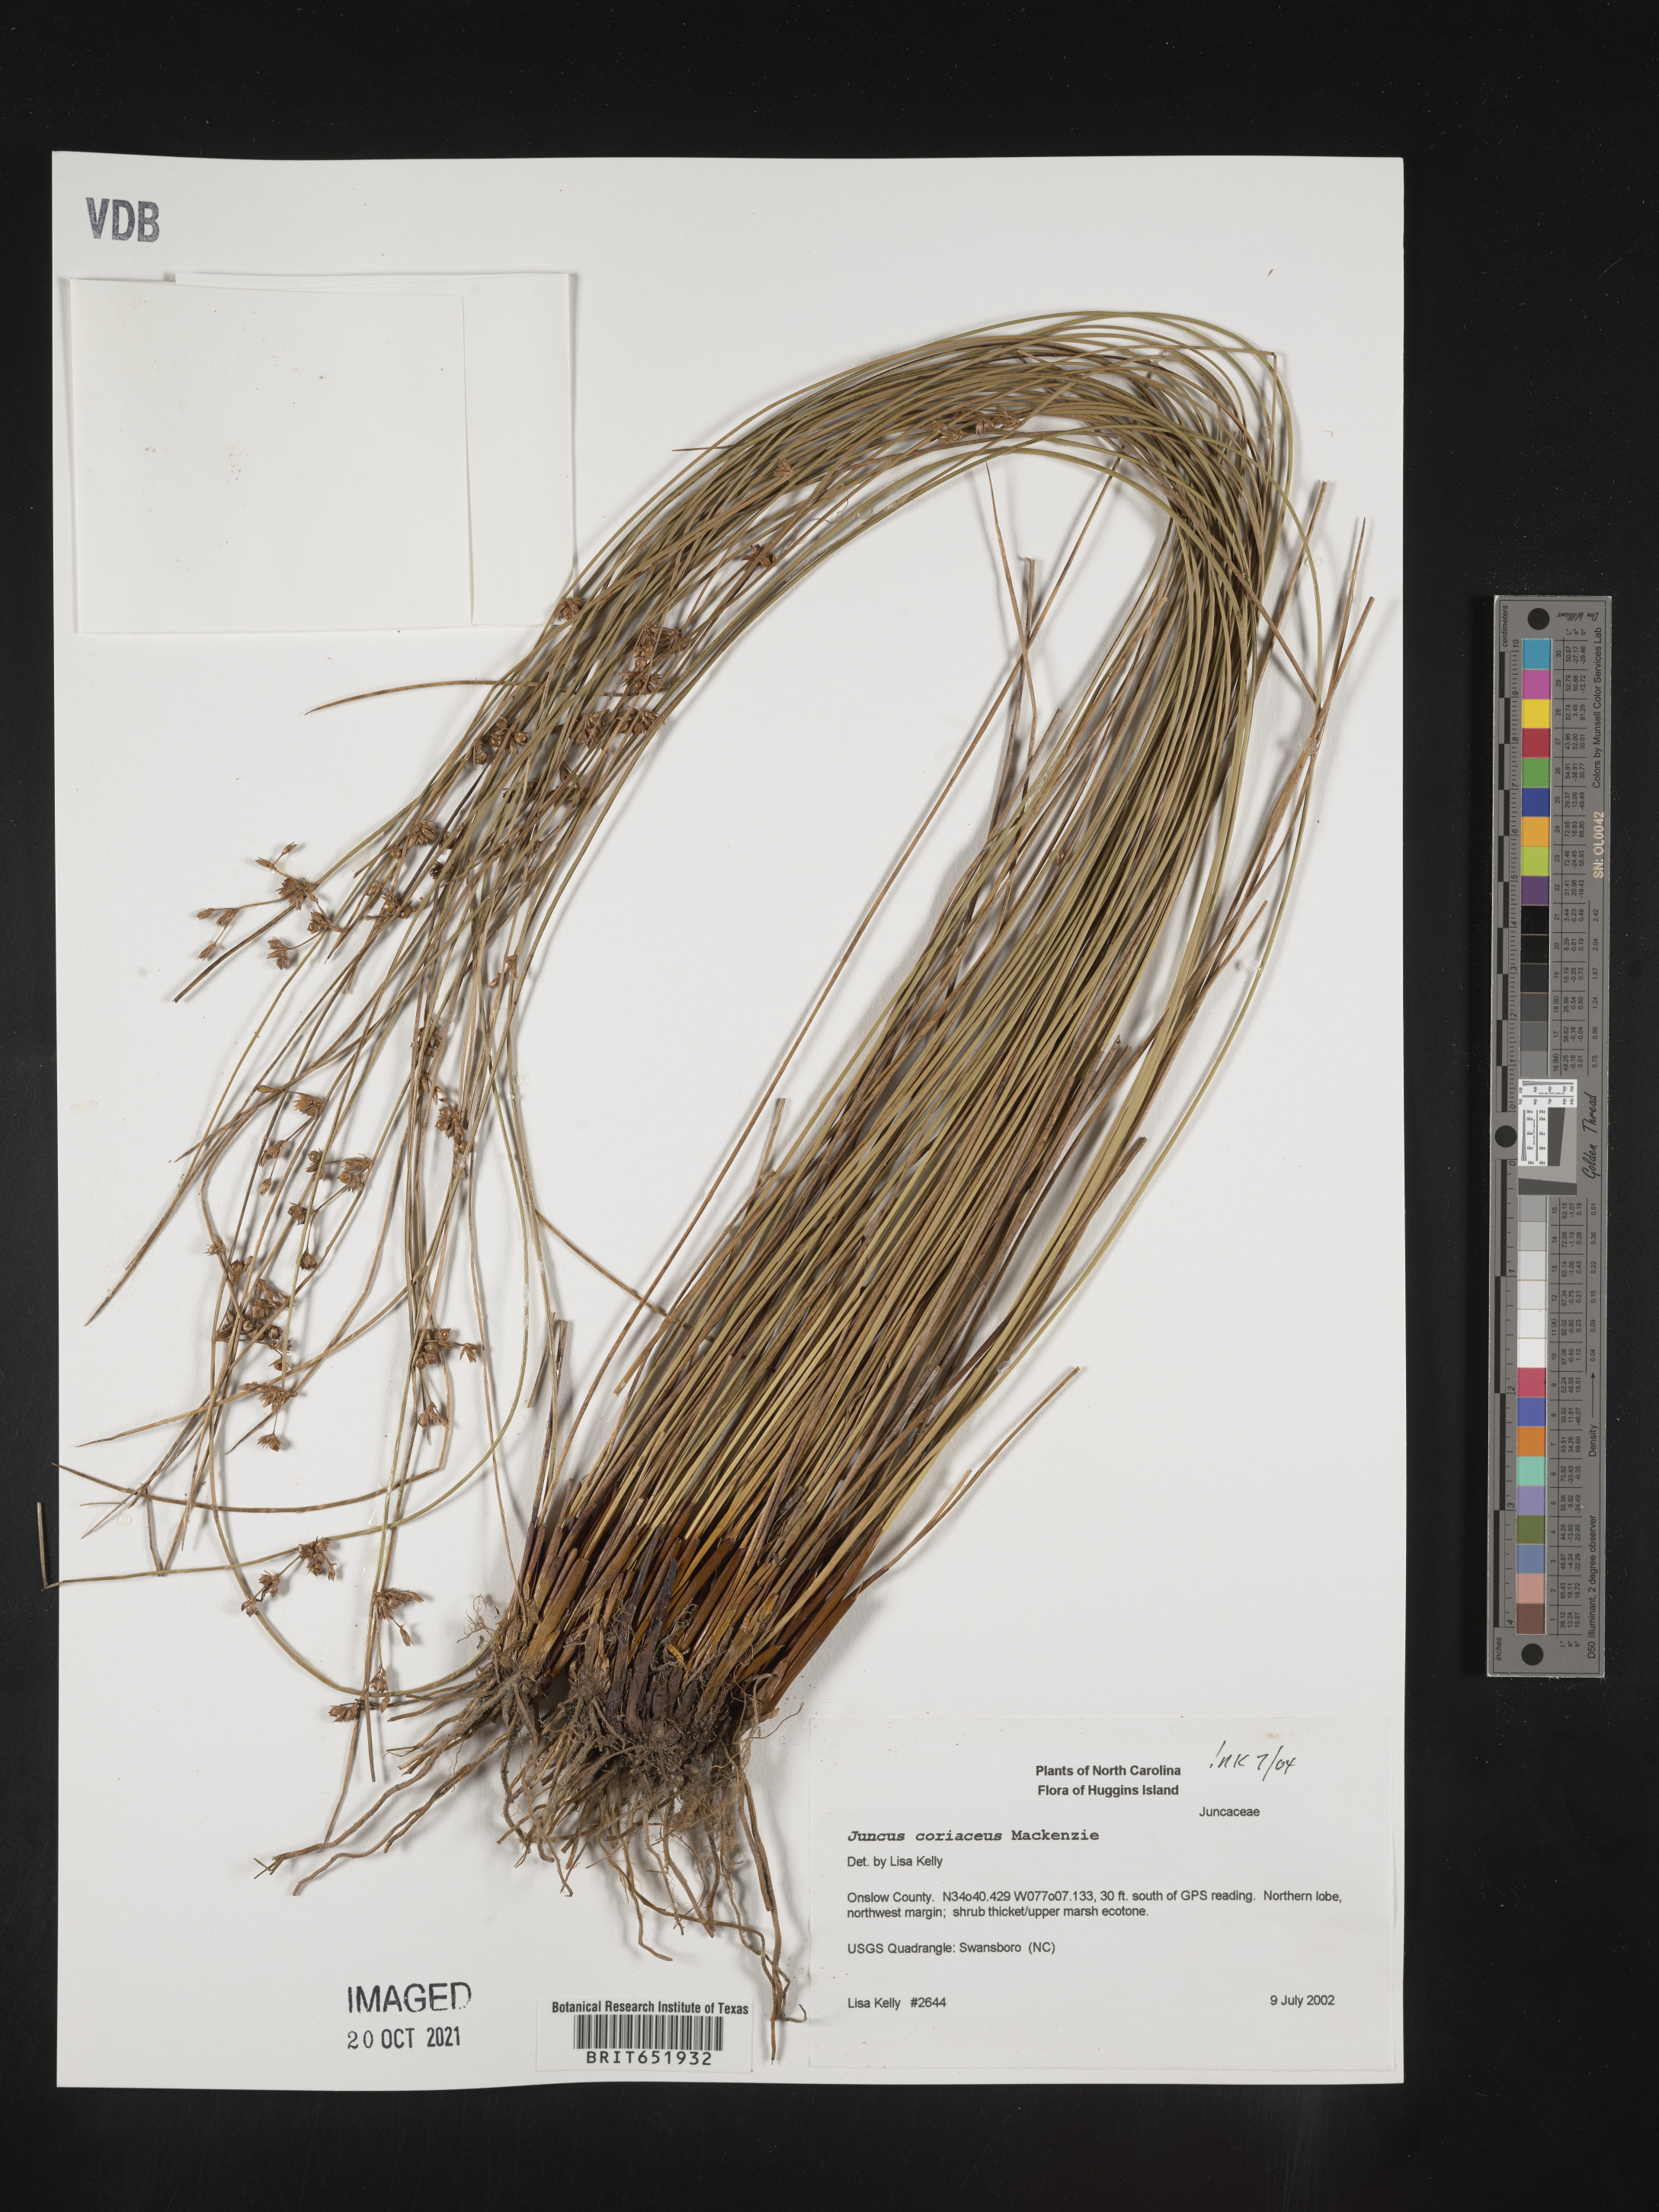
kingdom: Plantae
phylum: Tracheophyta
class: Liliopsida
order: Poales
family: Juncaceae
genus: Juncus
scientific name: Juncus coriaceus
